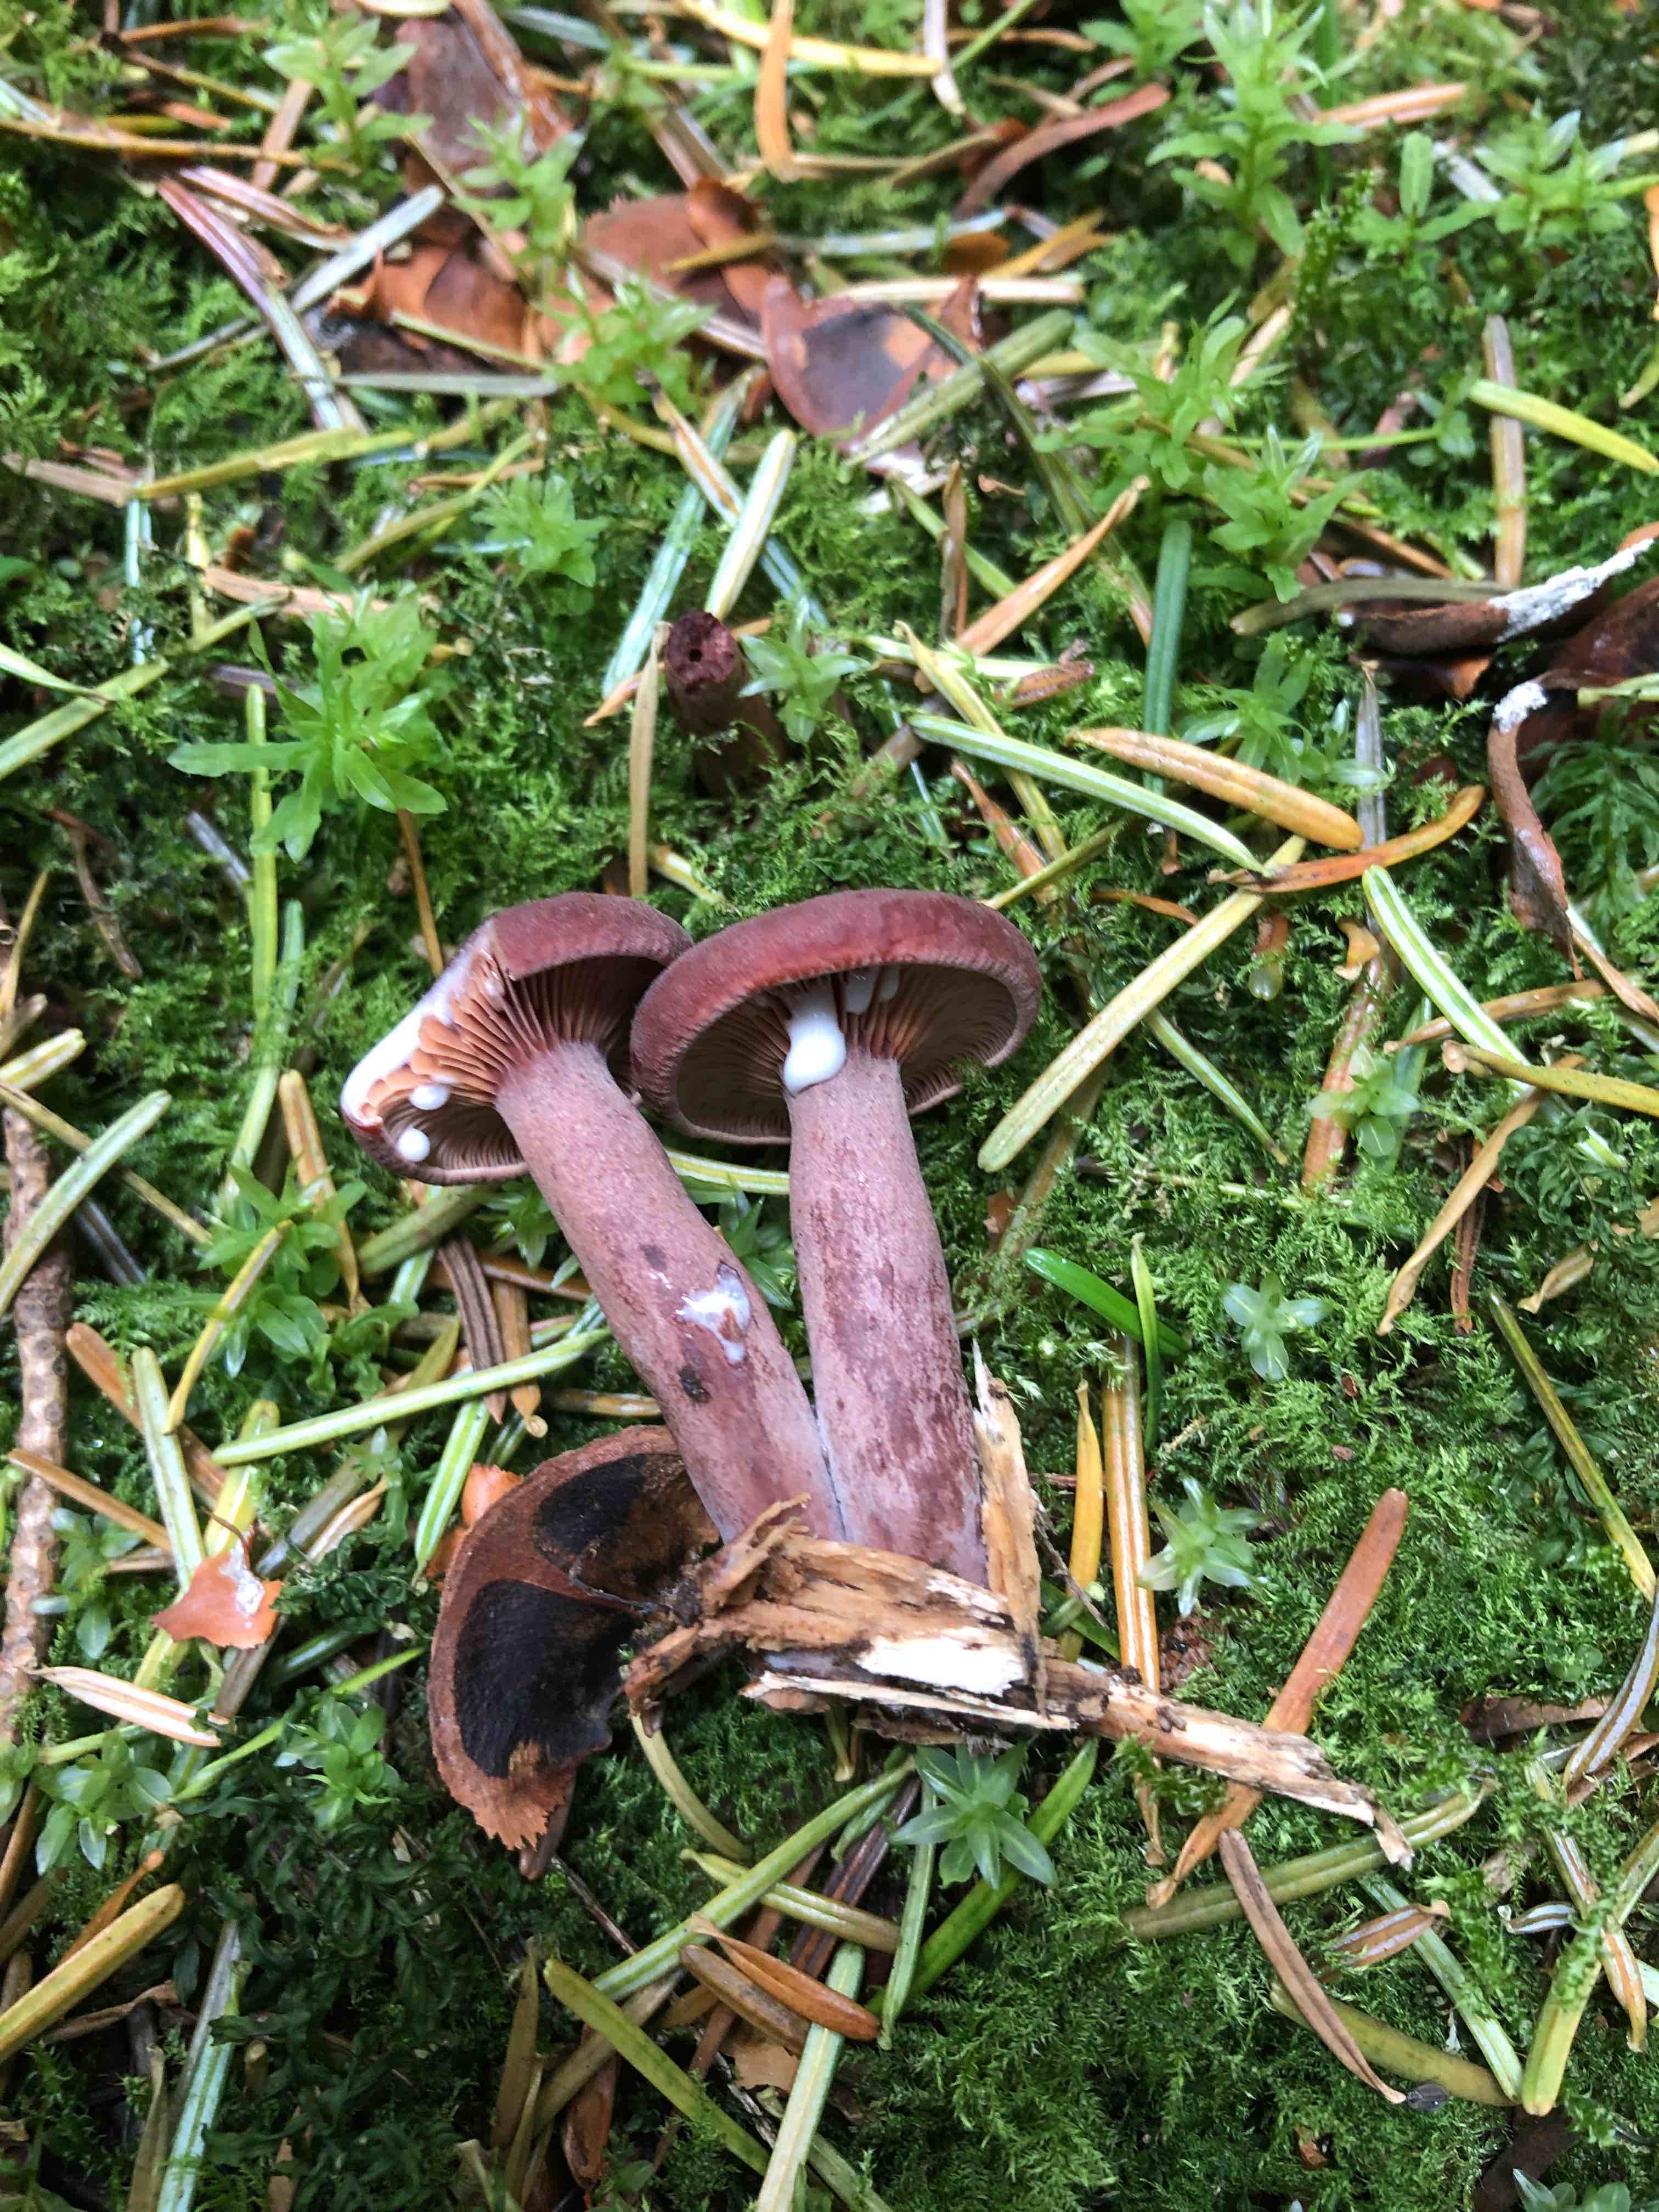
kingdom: Fungi
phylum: Basidiomycota
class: Agaricomycetes
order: Russulales
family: Russulaceae
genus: Lactarius
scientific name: Lactarius camphoratus
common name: kamfer-mælkehat
